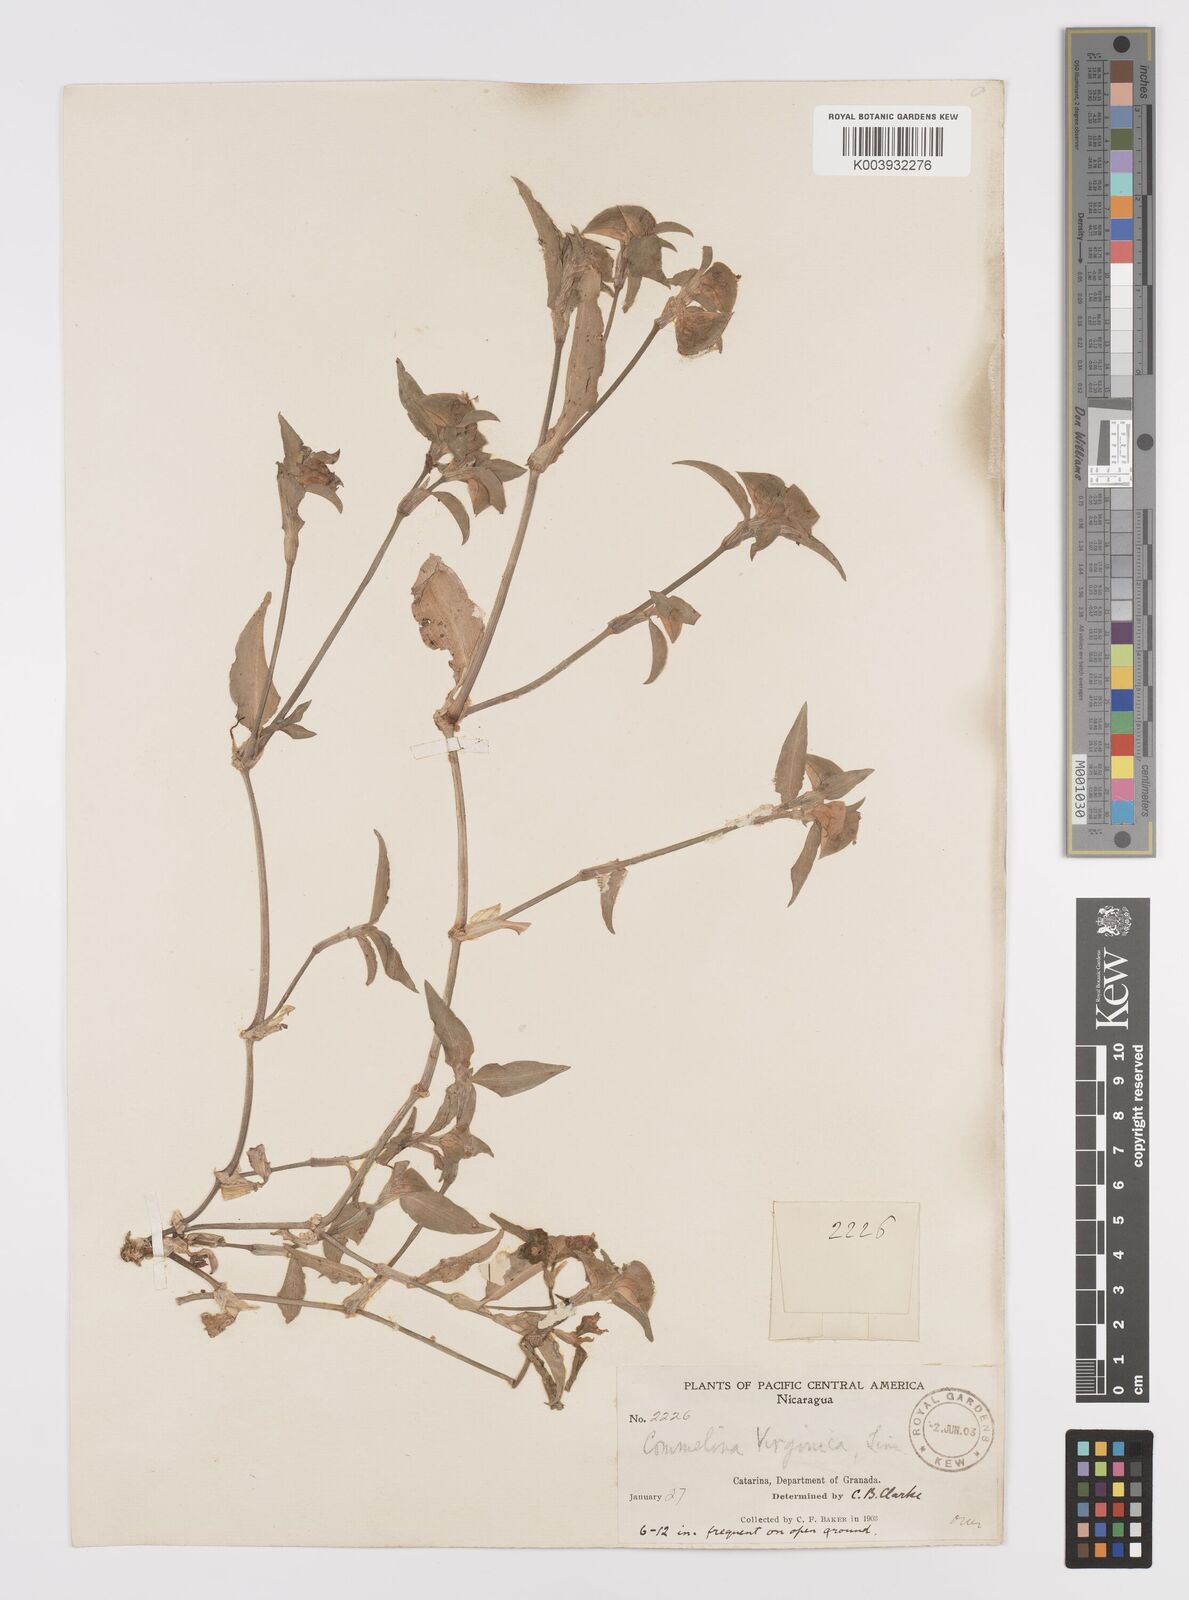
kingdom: Plantae
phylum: Tracheophyta
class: Liliopsida
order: Commelinales
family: Commelinaceae
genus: Commelina
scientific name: Commelina erecta
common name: Blousel blommetjie
